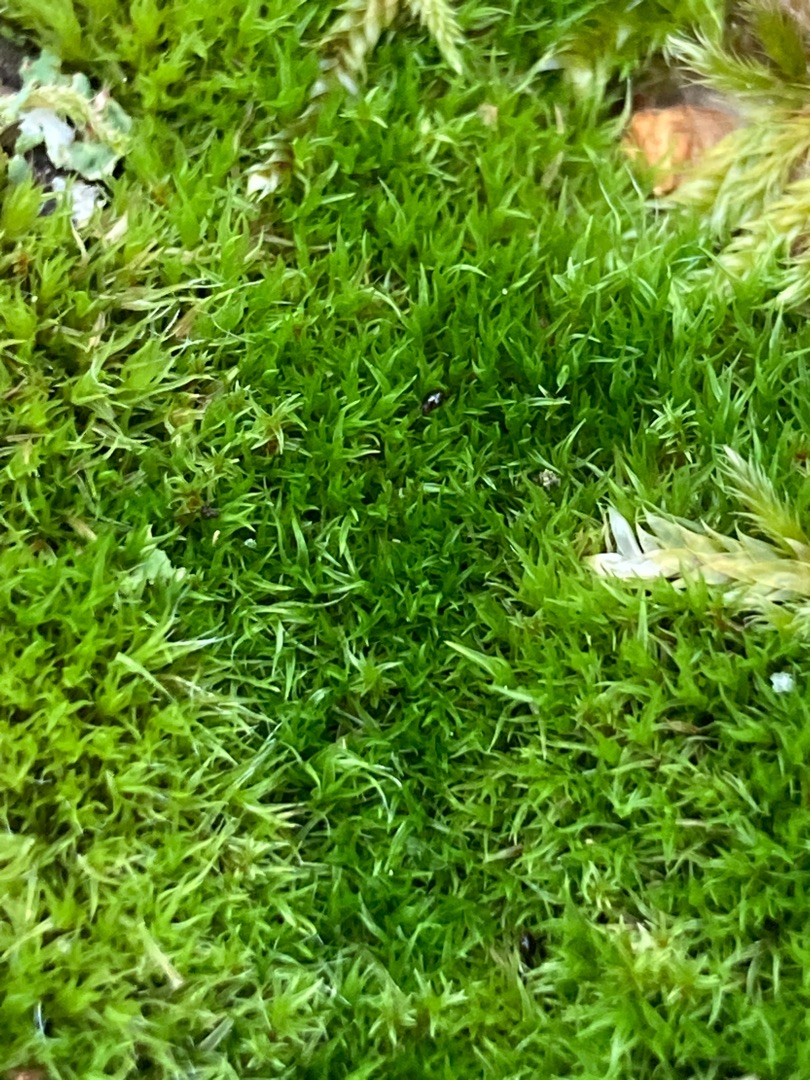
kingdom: Plantae
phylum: Bryophyta
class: Bryopsida
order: Grimmiales
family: Grimmiaceae
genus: Grimmia
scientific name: Grimmia hartmanii
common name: Hartmans gråmos
